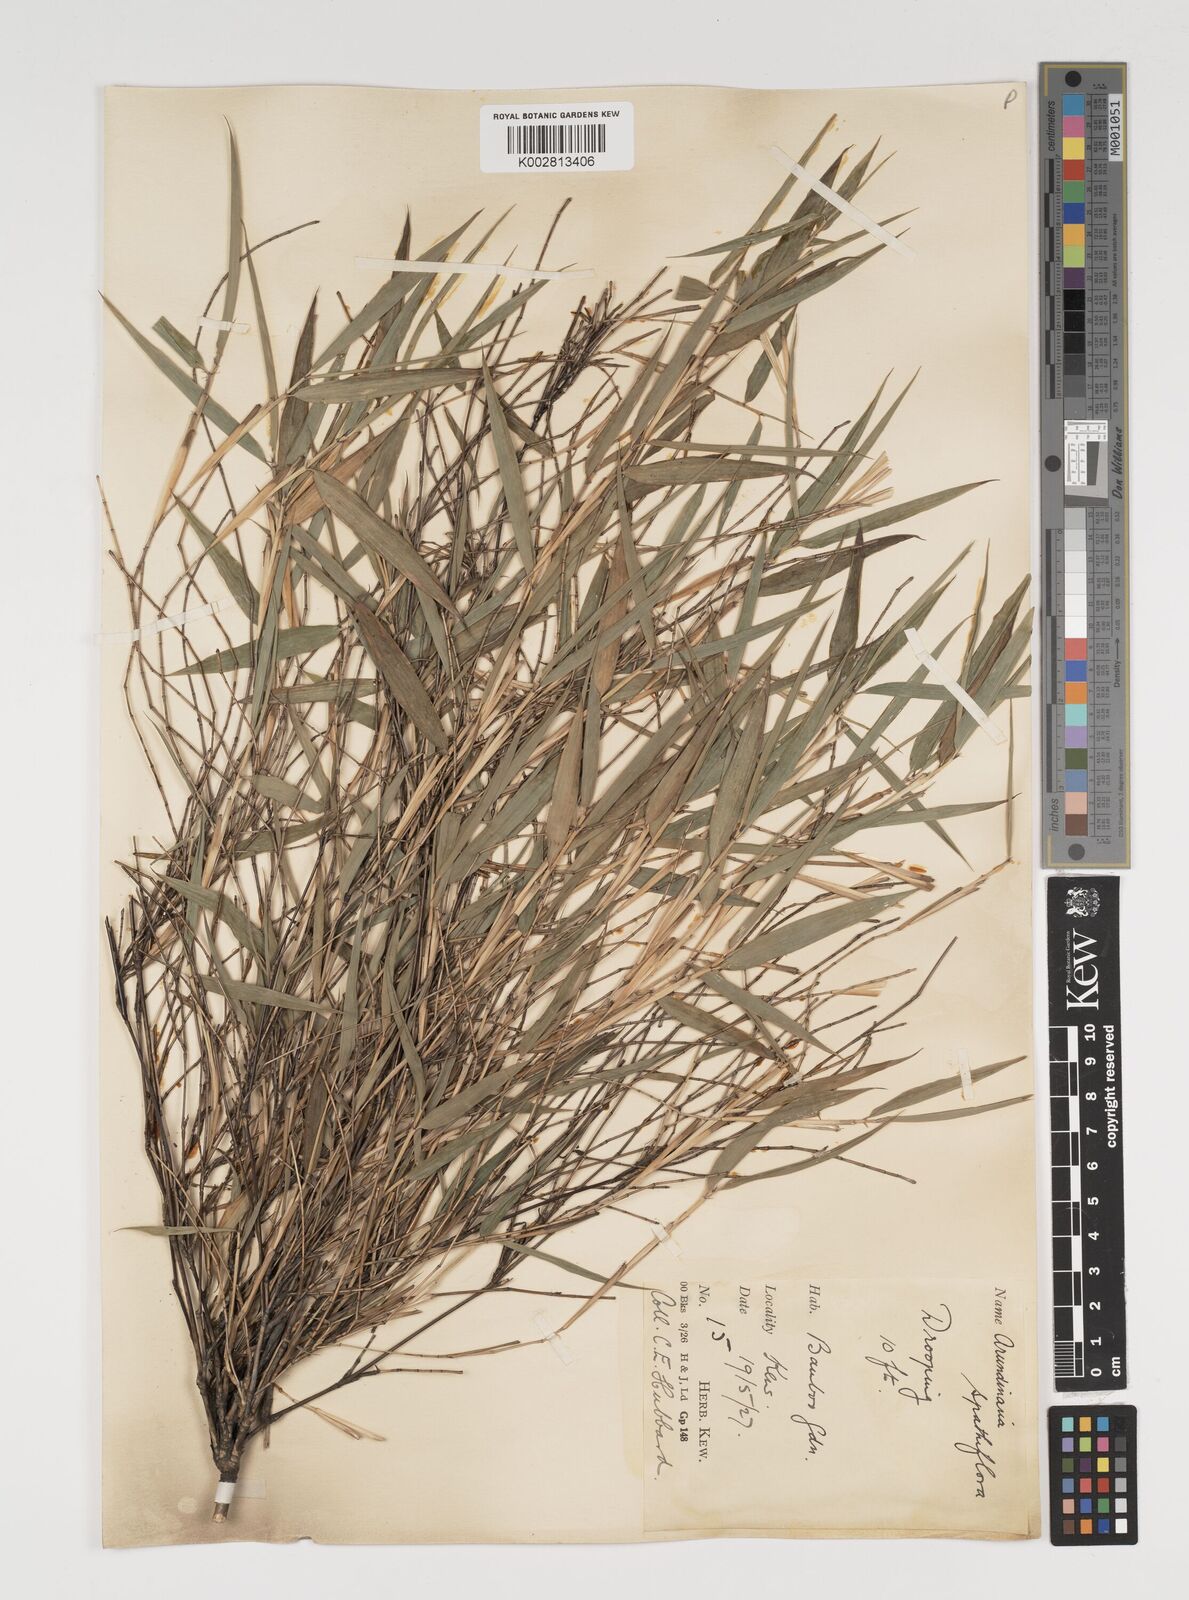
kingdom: Plantae
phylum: Tracheophyta
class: Liliopsida
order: Poales
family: Poaceae
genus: Thamnocalamus
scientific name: Thamnocalamus spathiflorus
